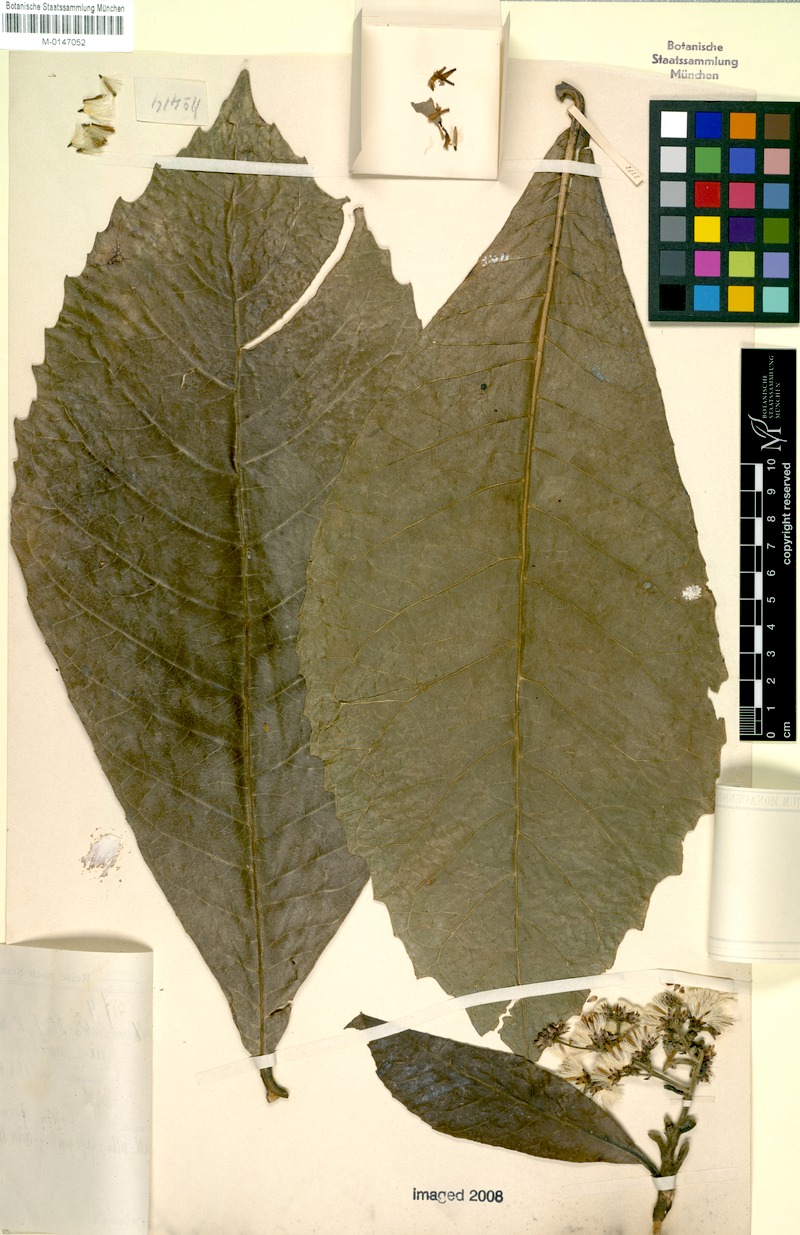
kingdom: Plantae
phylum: Tracheophyta
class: Magnoliopsida
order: Asterales
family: Asteraceae
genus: Monosis
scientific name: Monosis volkameriifolia
